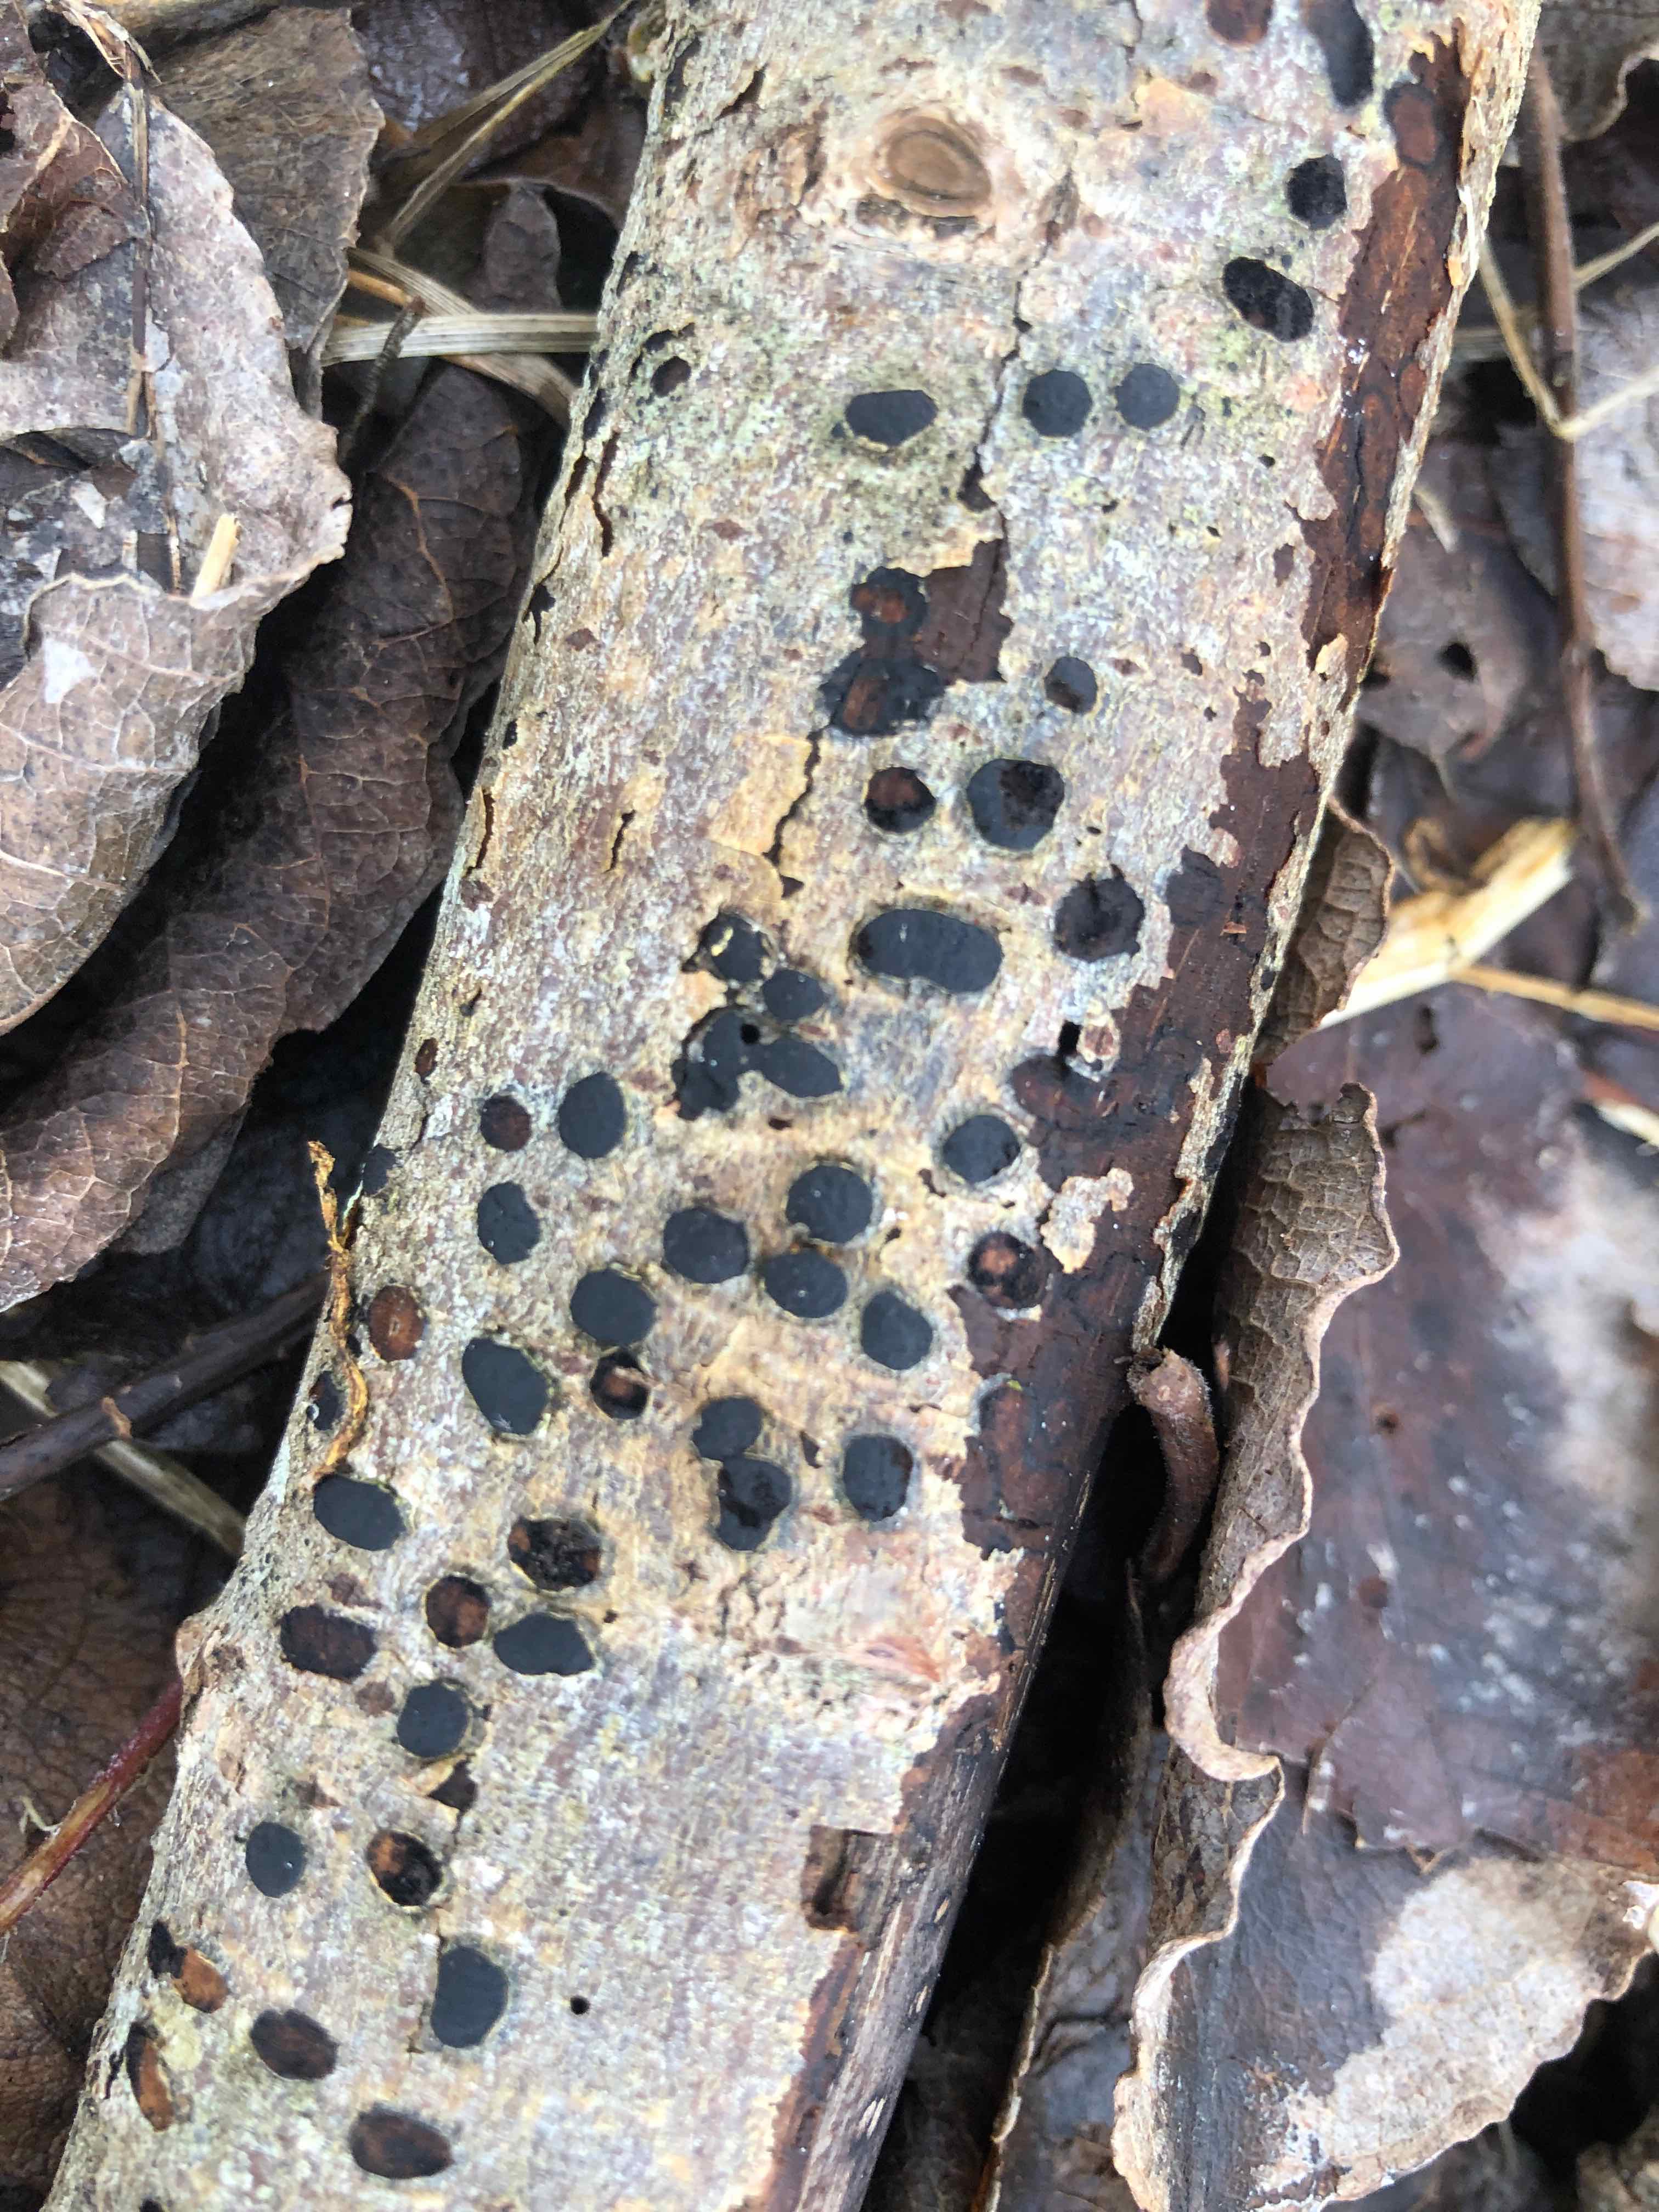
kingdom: Fungi
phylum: Ascomycota
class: Sordariomycetes
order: Xylariales
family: Diatrypaceae
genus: Diatrype
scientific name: Diatrype bullata
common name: pile-kulskorpe
